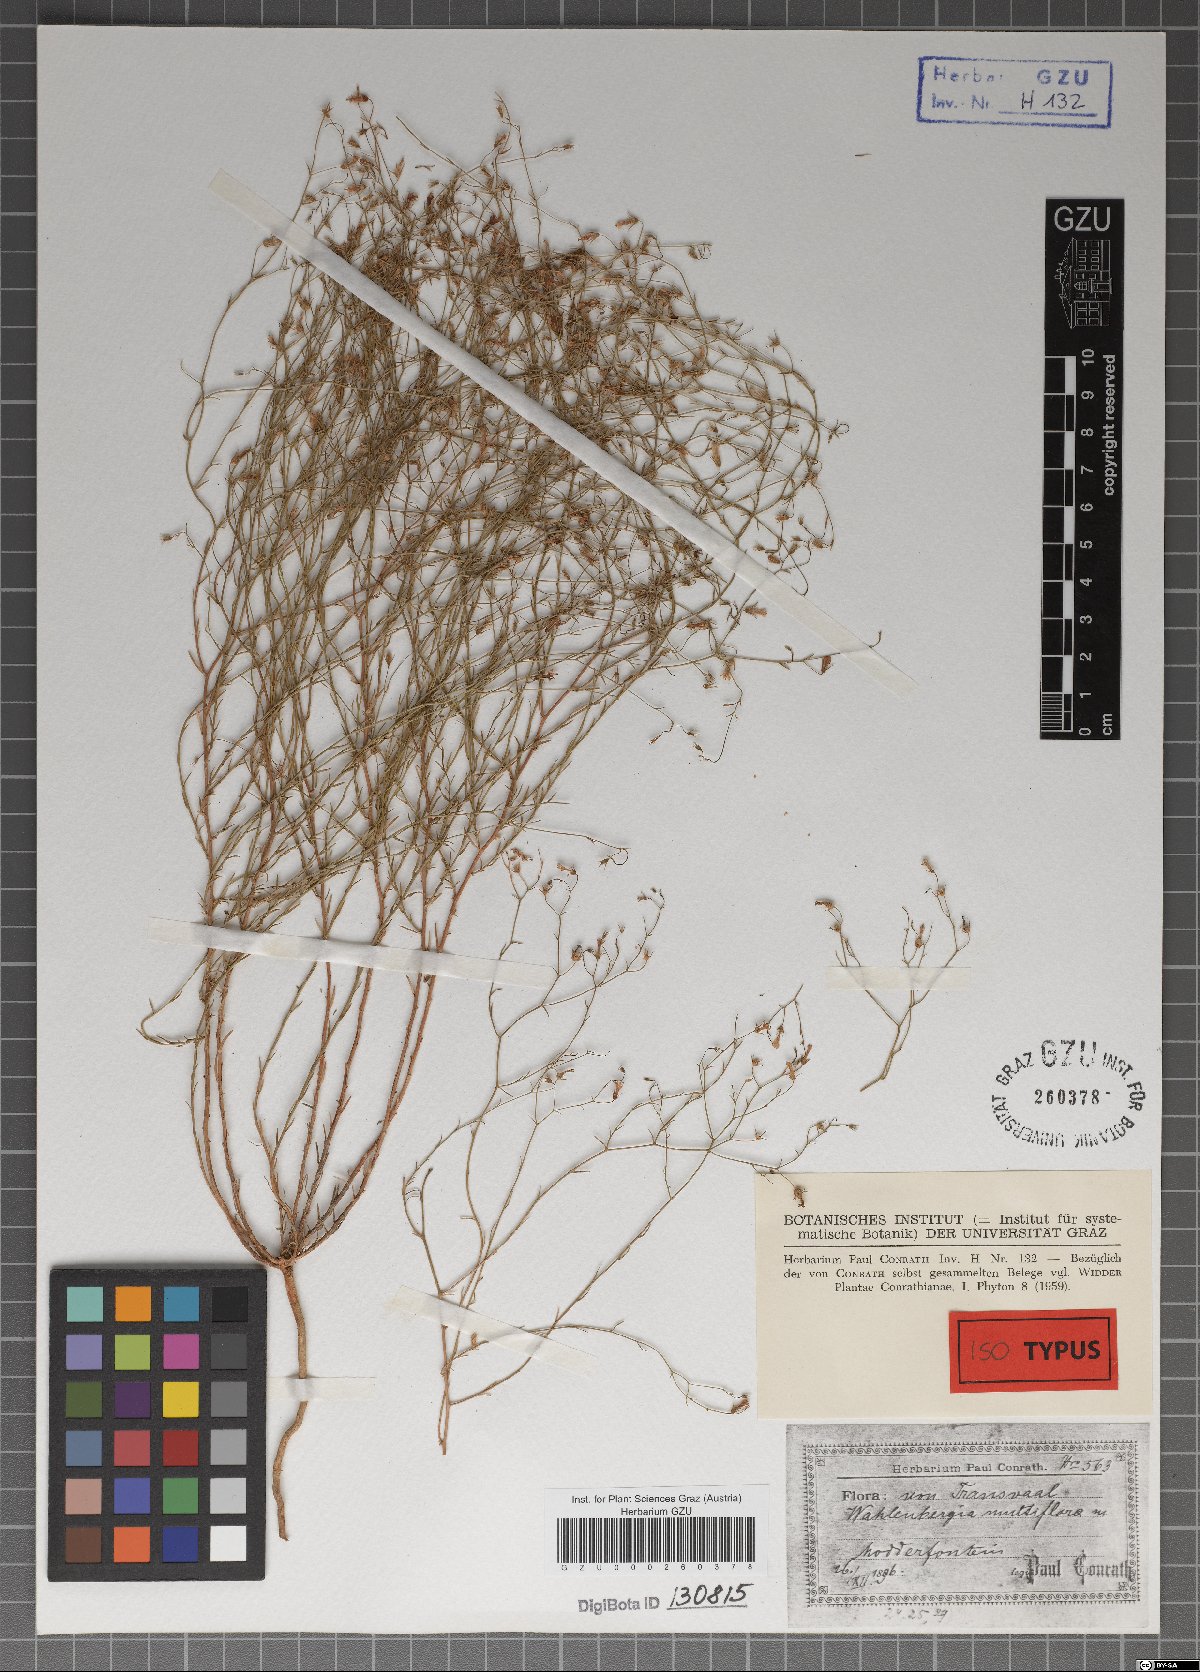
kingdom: Plantae
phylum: Tracheophyta
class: Magnoliopsida
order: Asterales
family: Campanulaceae
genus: Wahlenbergia
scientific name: Wahlenbergia banksiana
